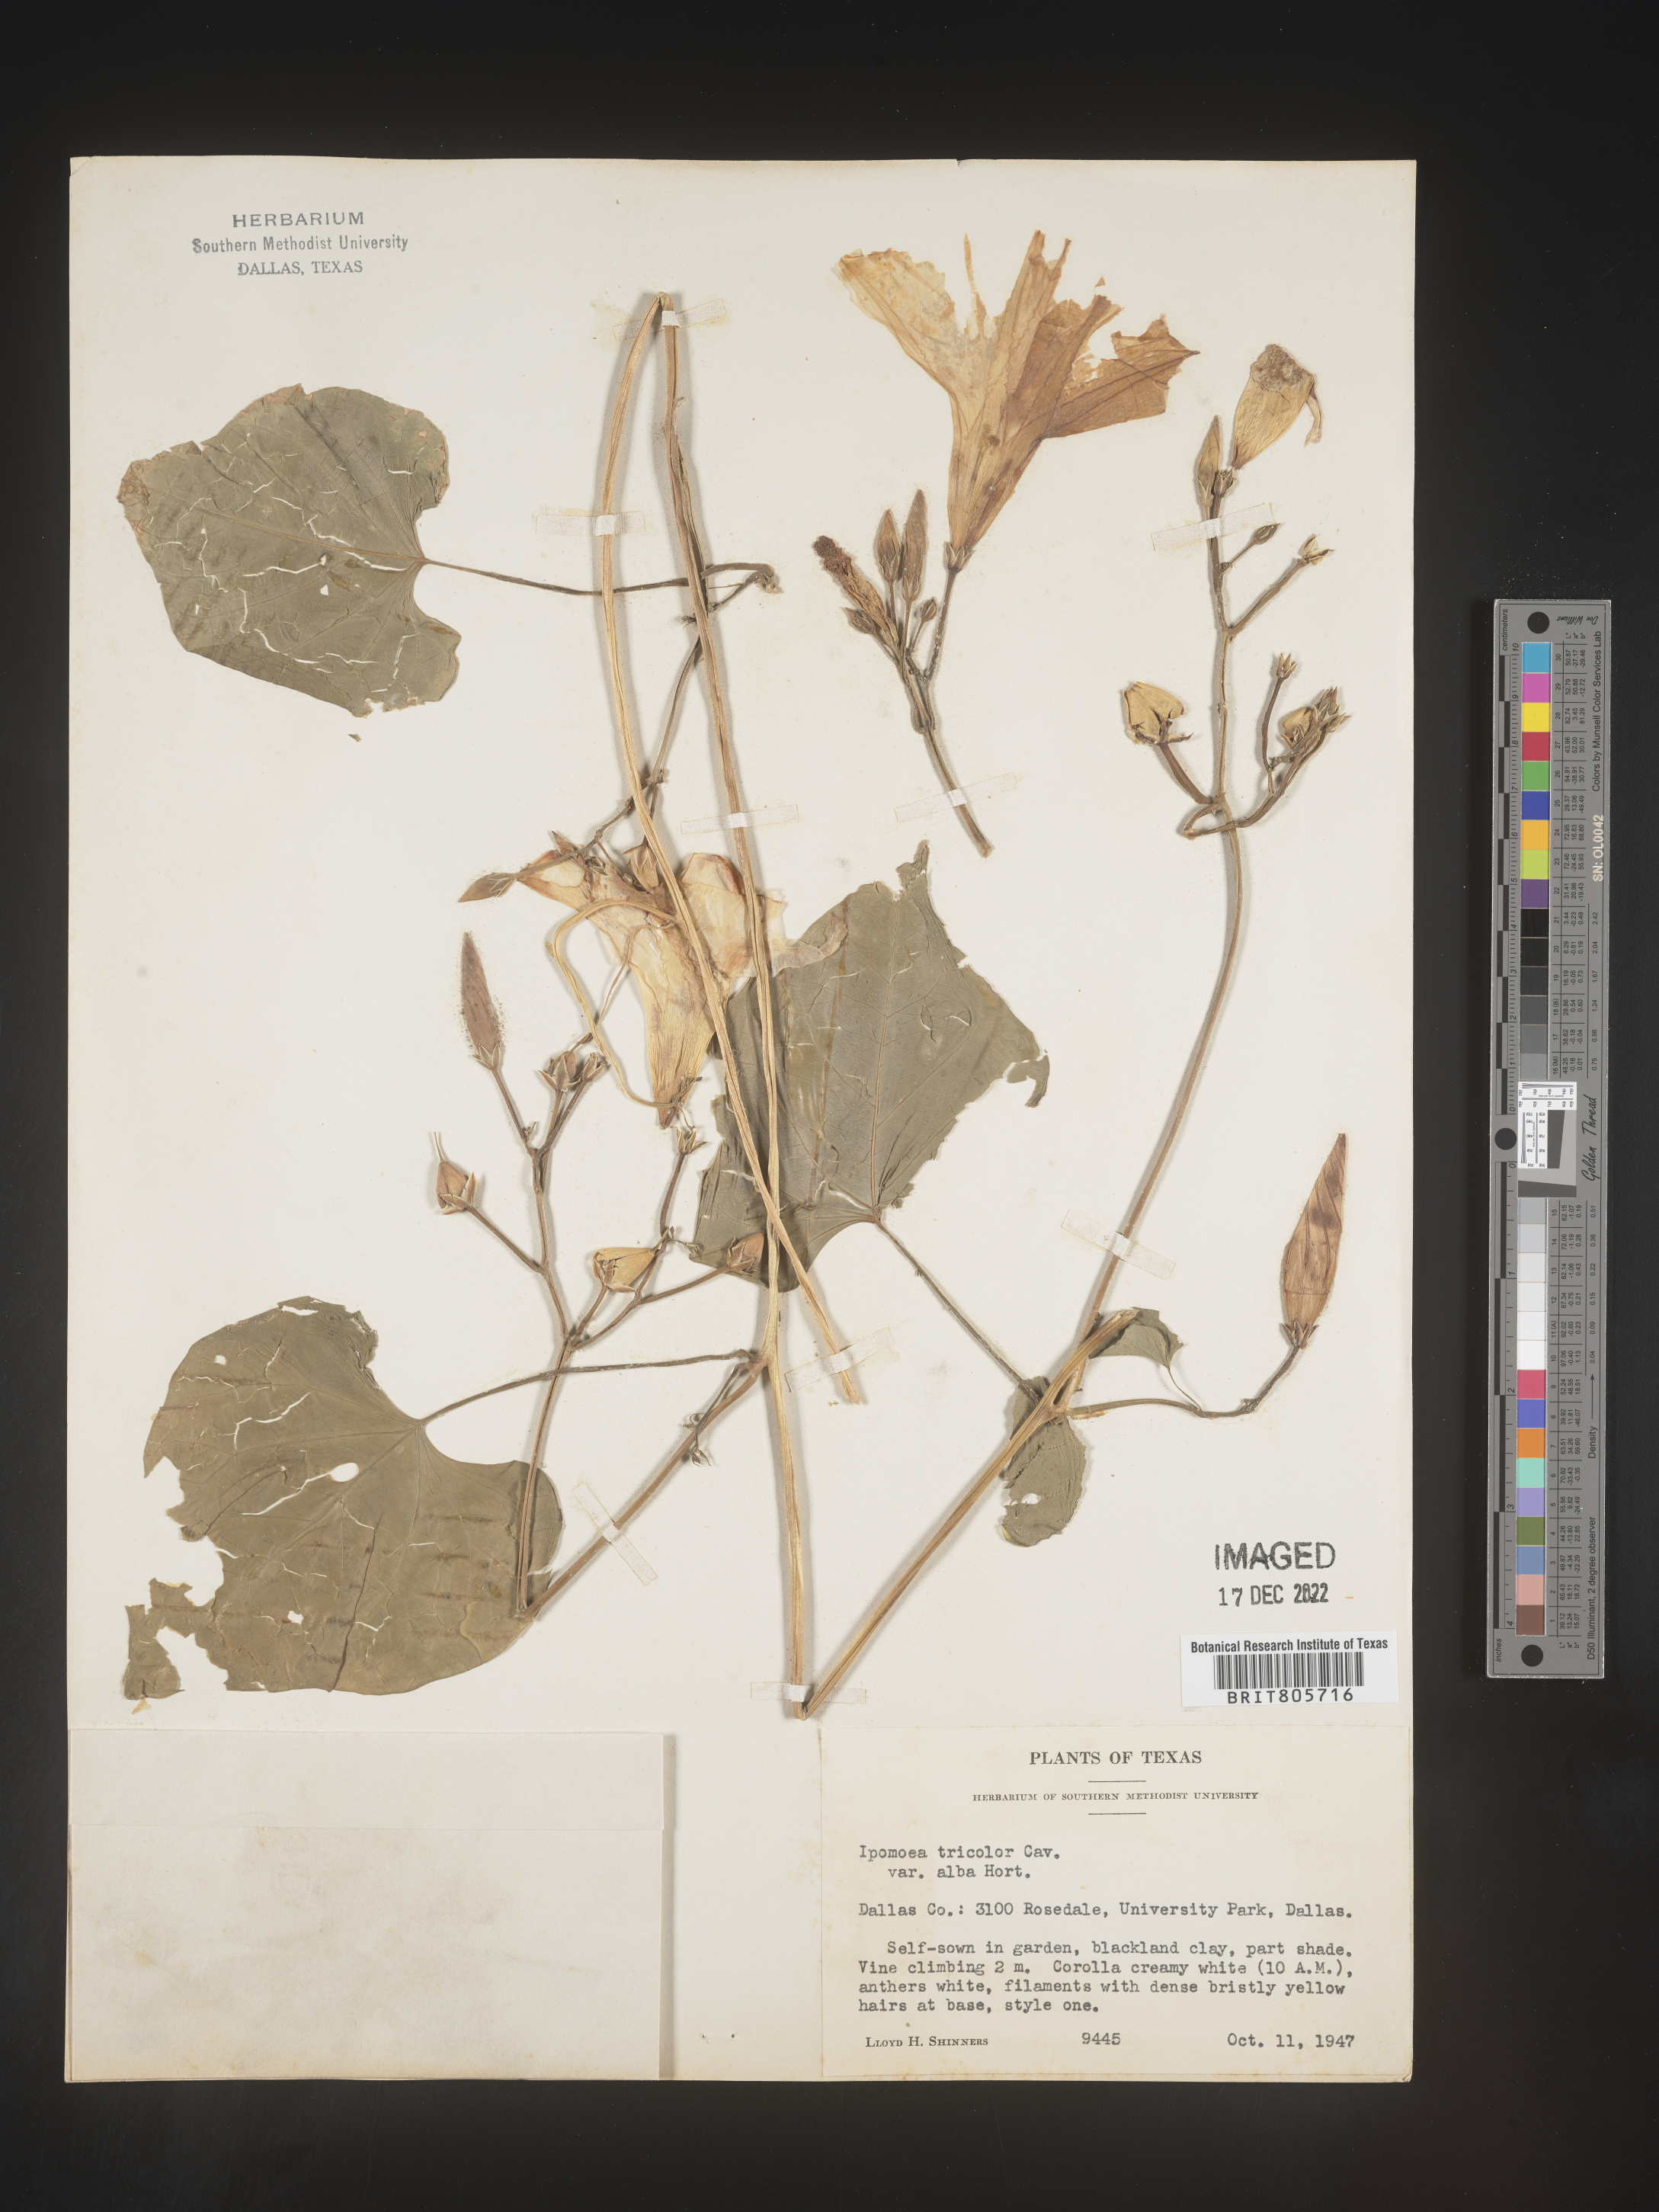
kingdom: Plantae
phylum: Tracheophyta
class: Magnoliopsida
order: Solanales
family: Convolvulaceae
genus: Ipomoea
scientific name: Ipomoea
